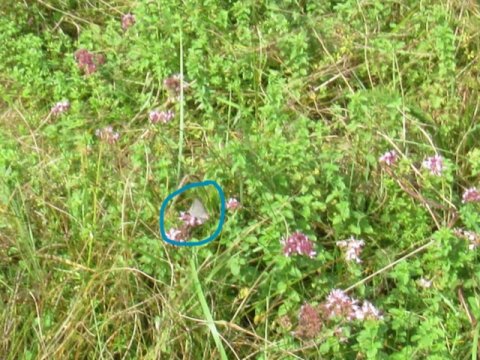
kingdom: Animalia
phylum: Arthropoda
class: Insecta
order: Lepidoptera
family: Lycaenidae
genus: Satyrium
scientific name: Satyrium
